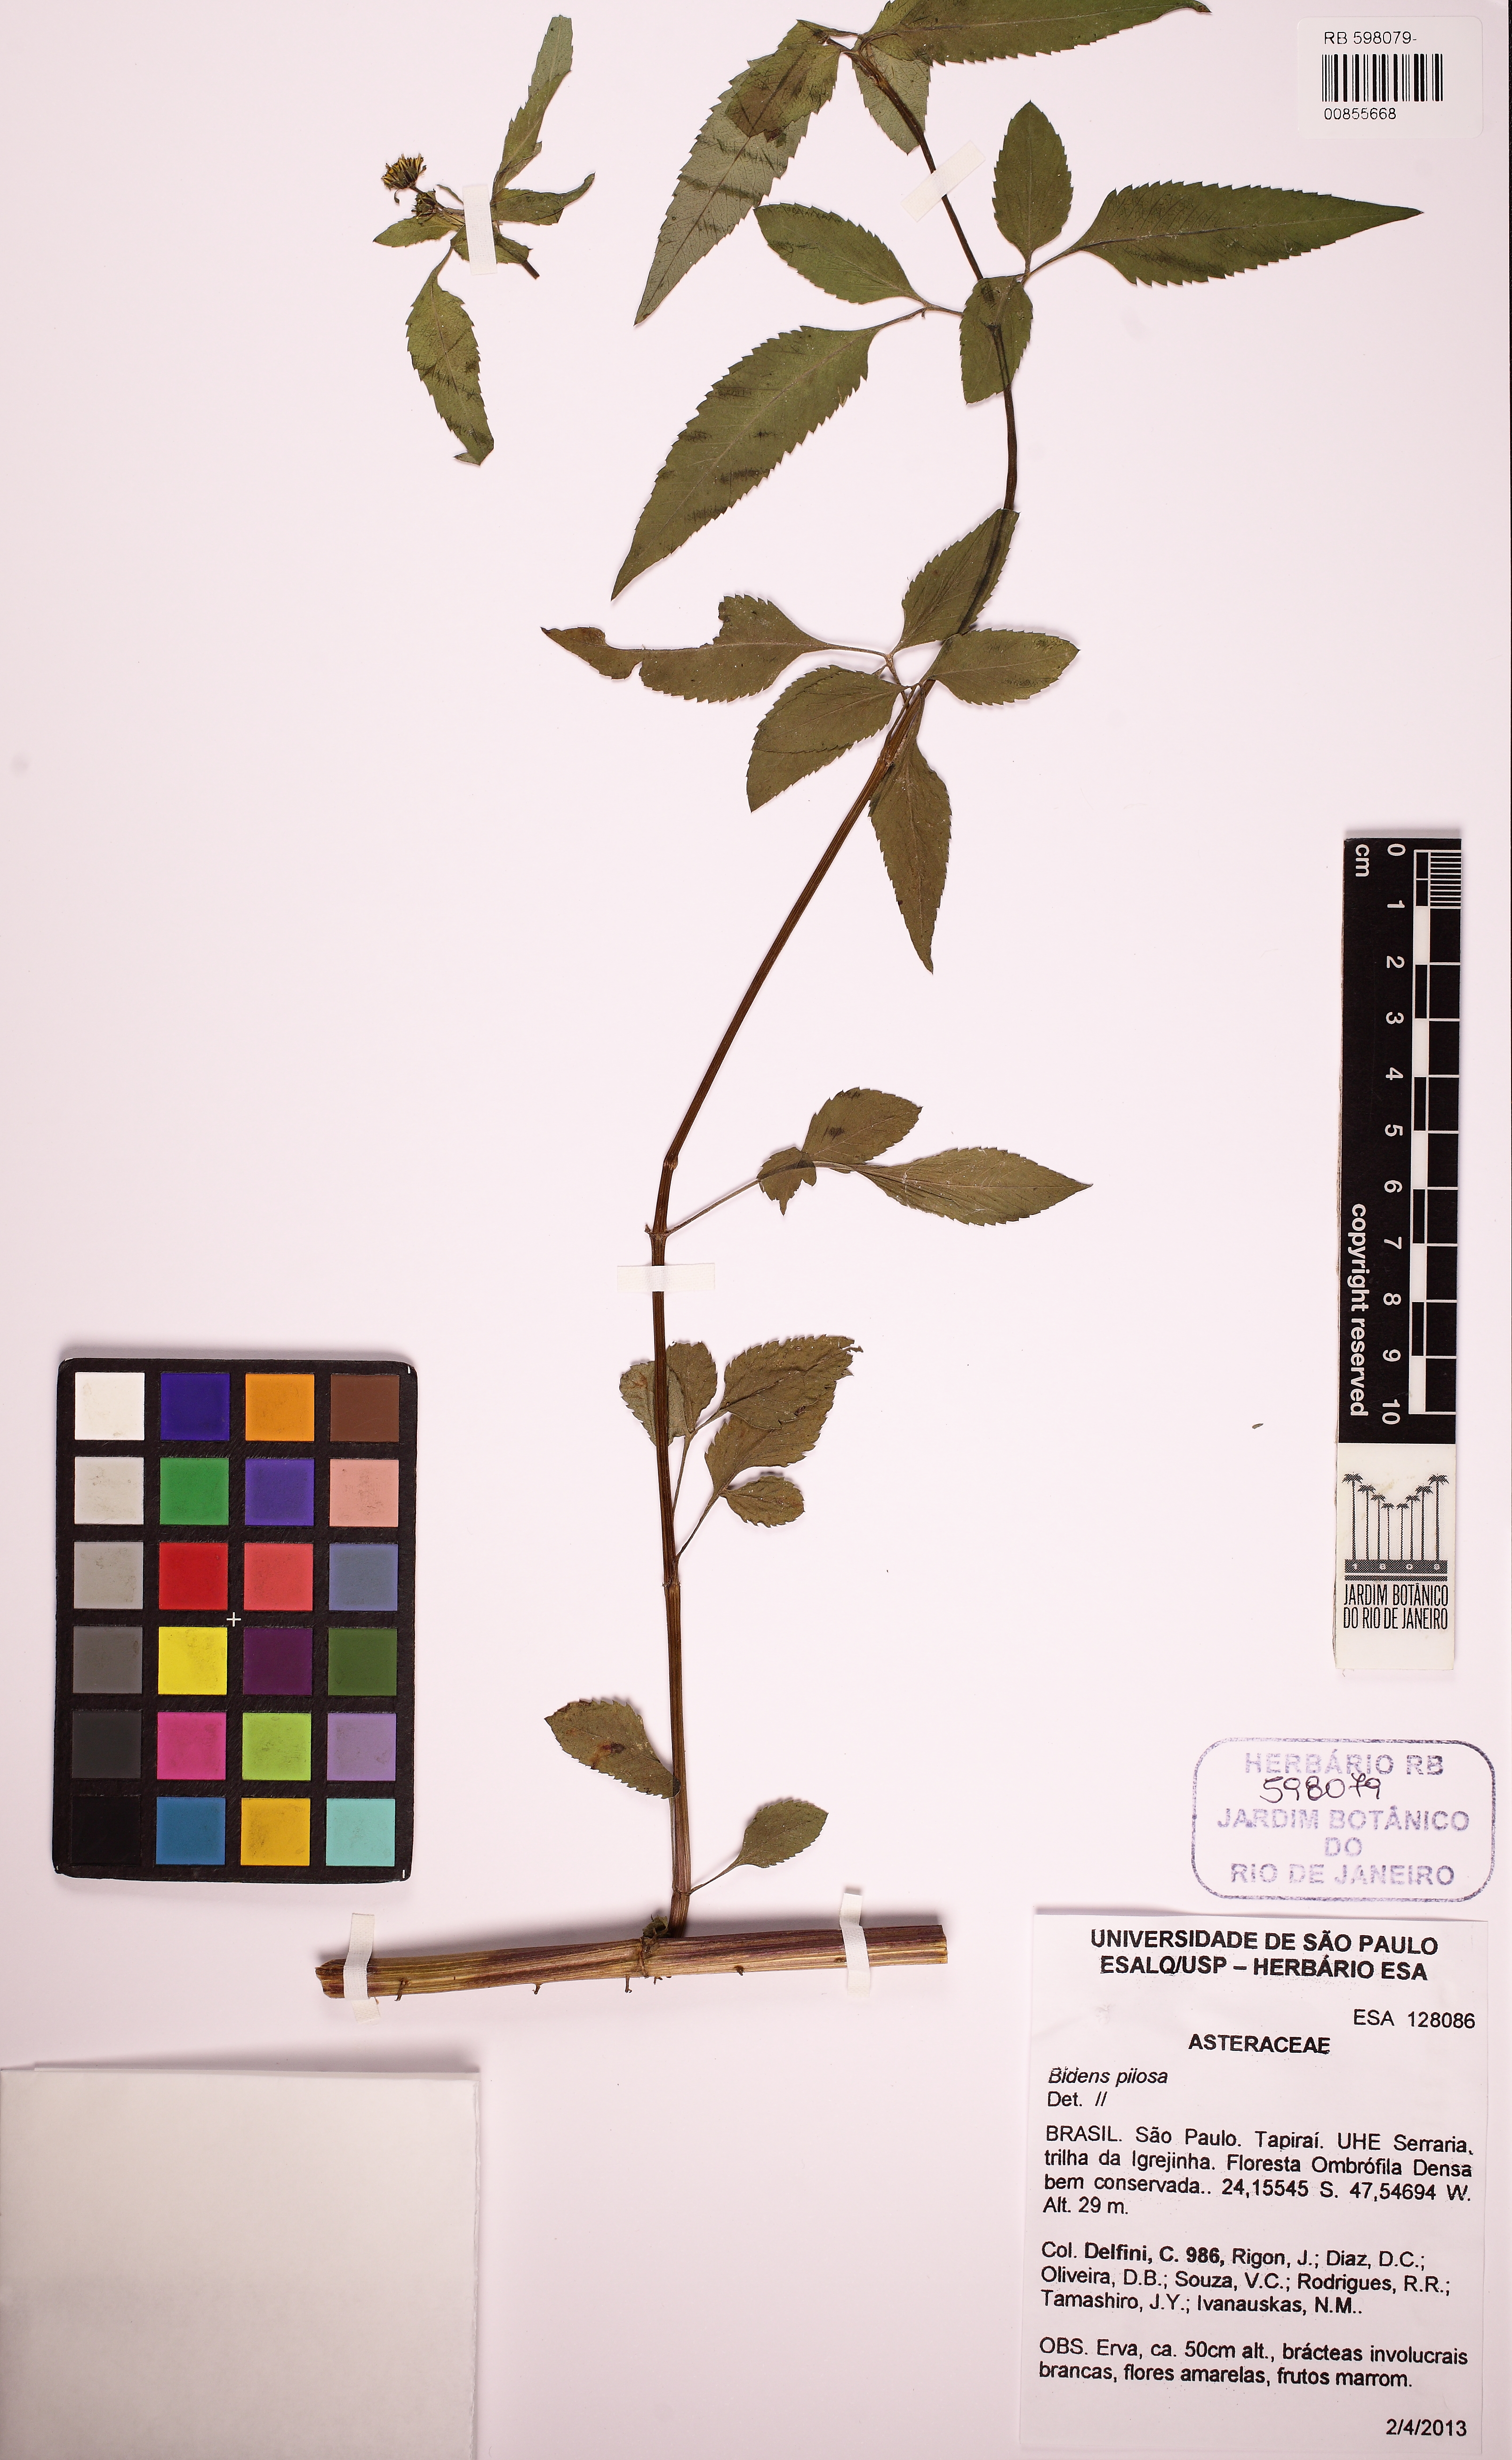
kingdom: Plantae
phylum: Tracheophyta
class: Magnoliopsida
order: Asterales
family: Asteraceae
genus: Bidens
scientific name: Bidens pilosa
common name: Black-jack
